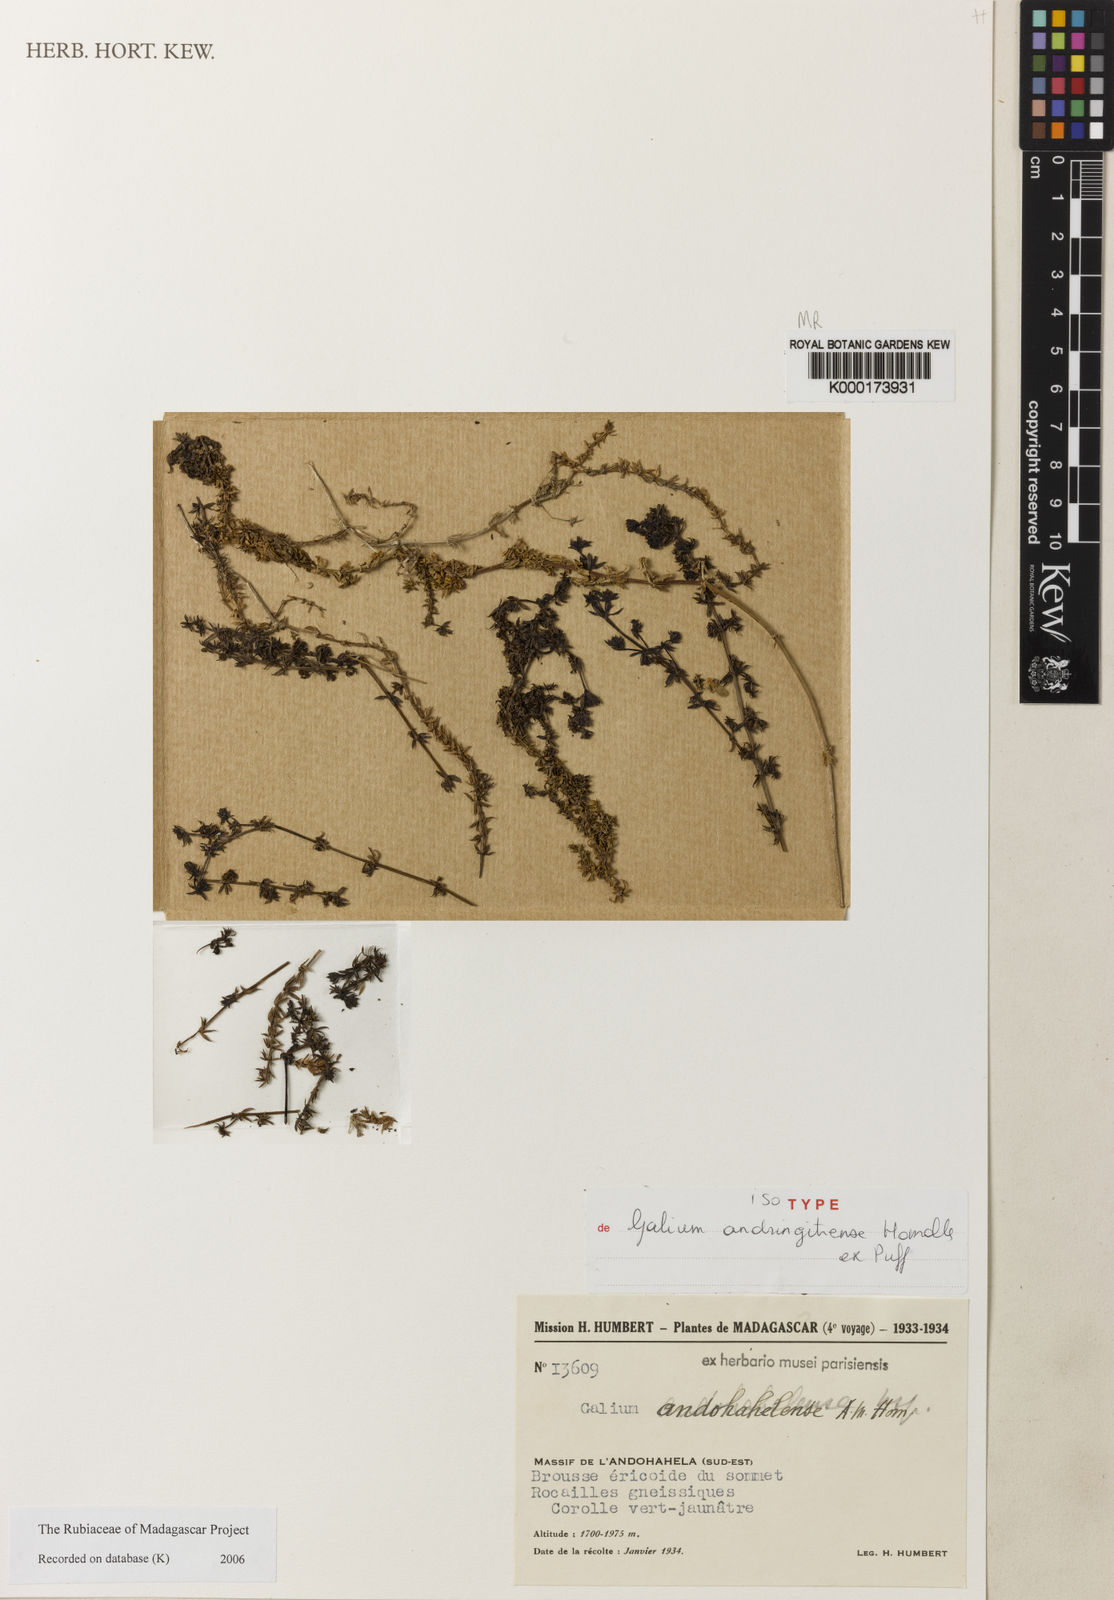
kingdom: Plantae
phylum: Tracheophyta
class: Magnoliopsida
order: Gentianales
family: Rubiaceae
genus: Galium
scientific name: Galium andringitrense
